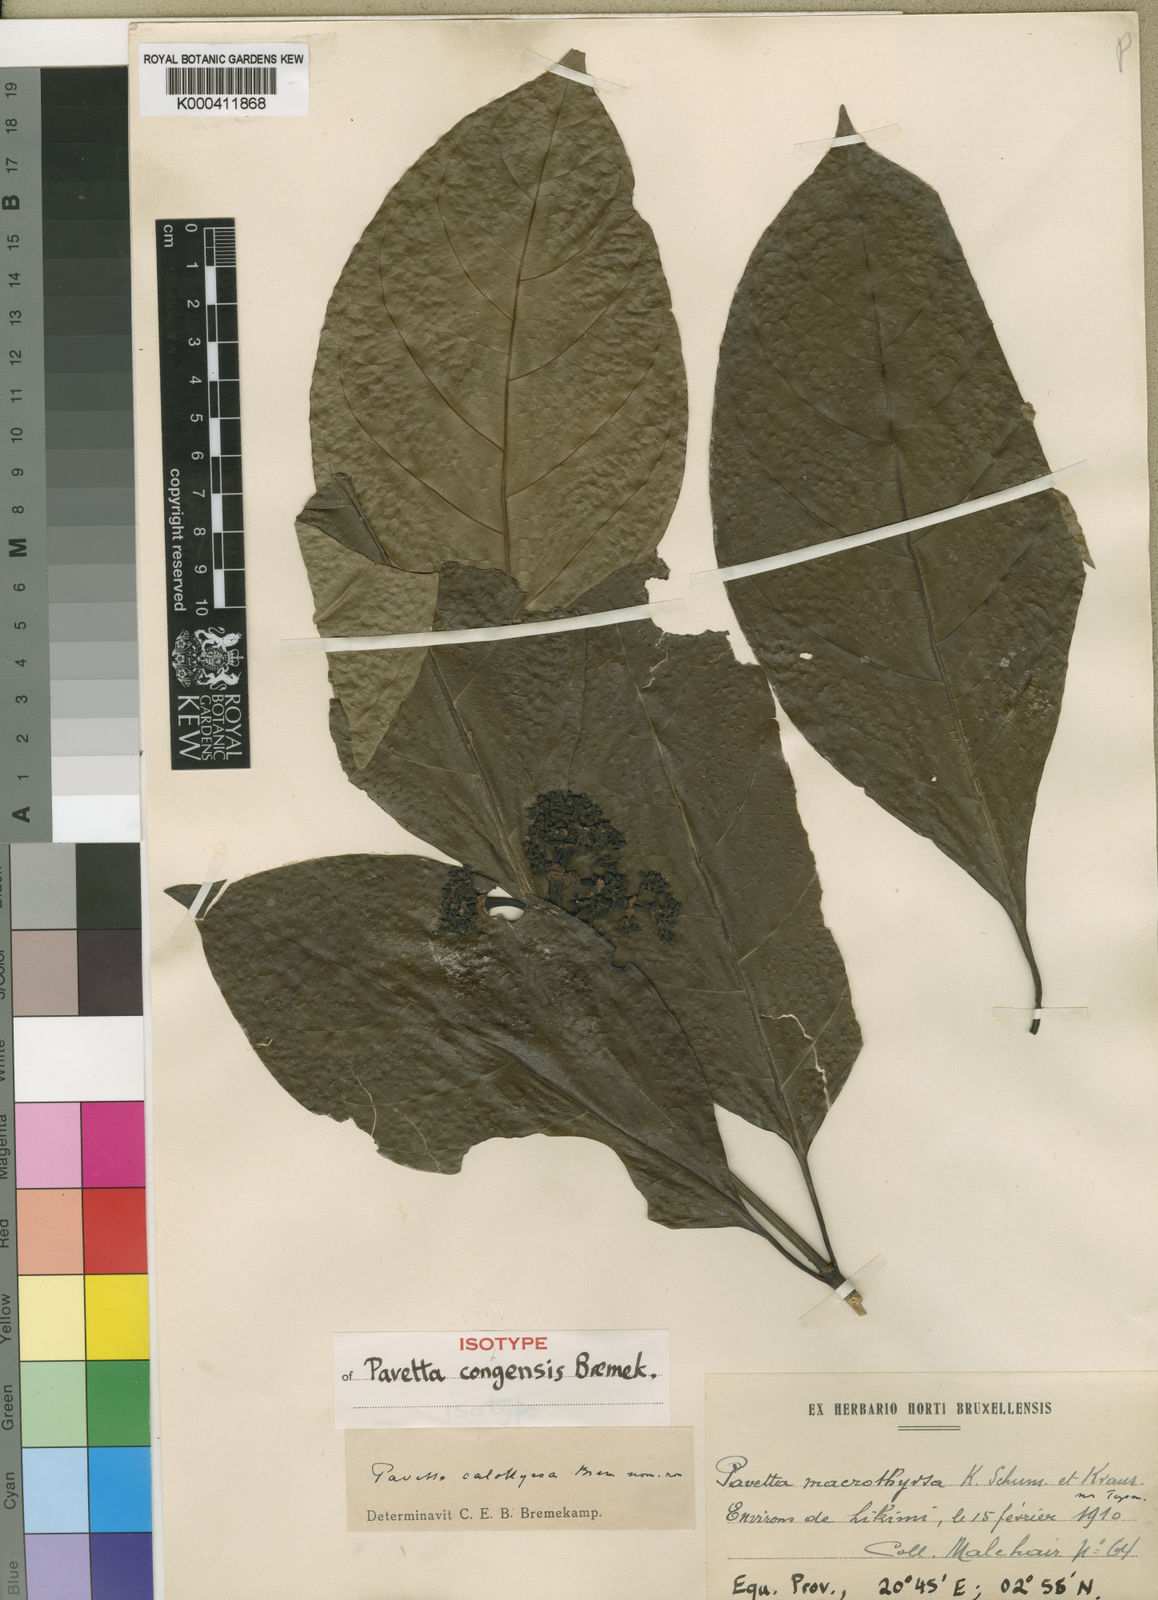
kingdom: Plantae
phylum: Tracheophyta
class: Magnoliopsida
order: Gentianales
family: Rubiaceae
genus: Pavetta
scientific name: Pavetta nitidula
